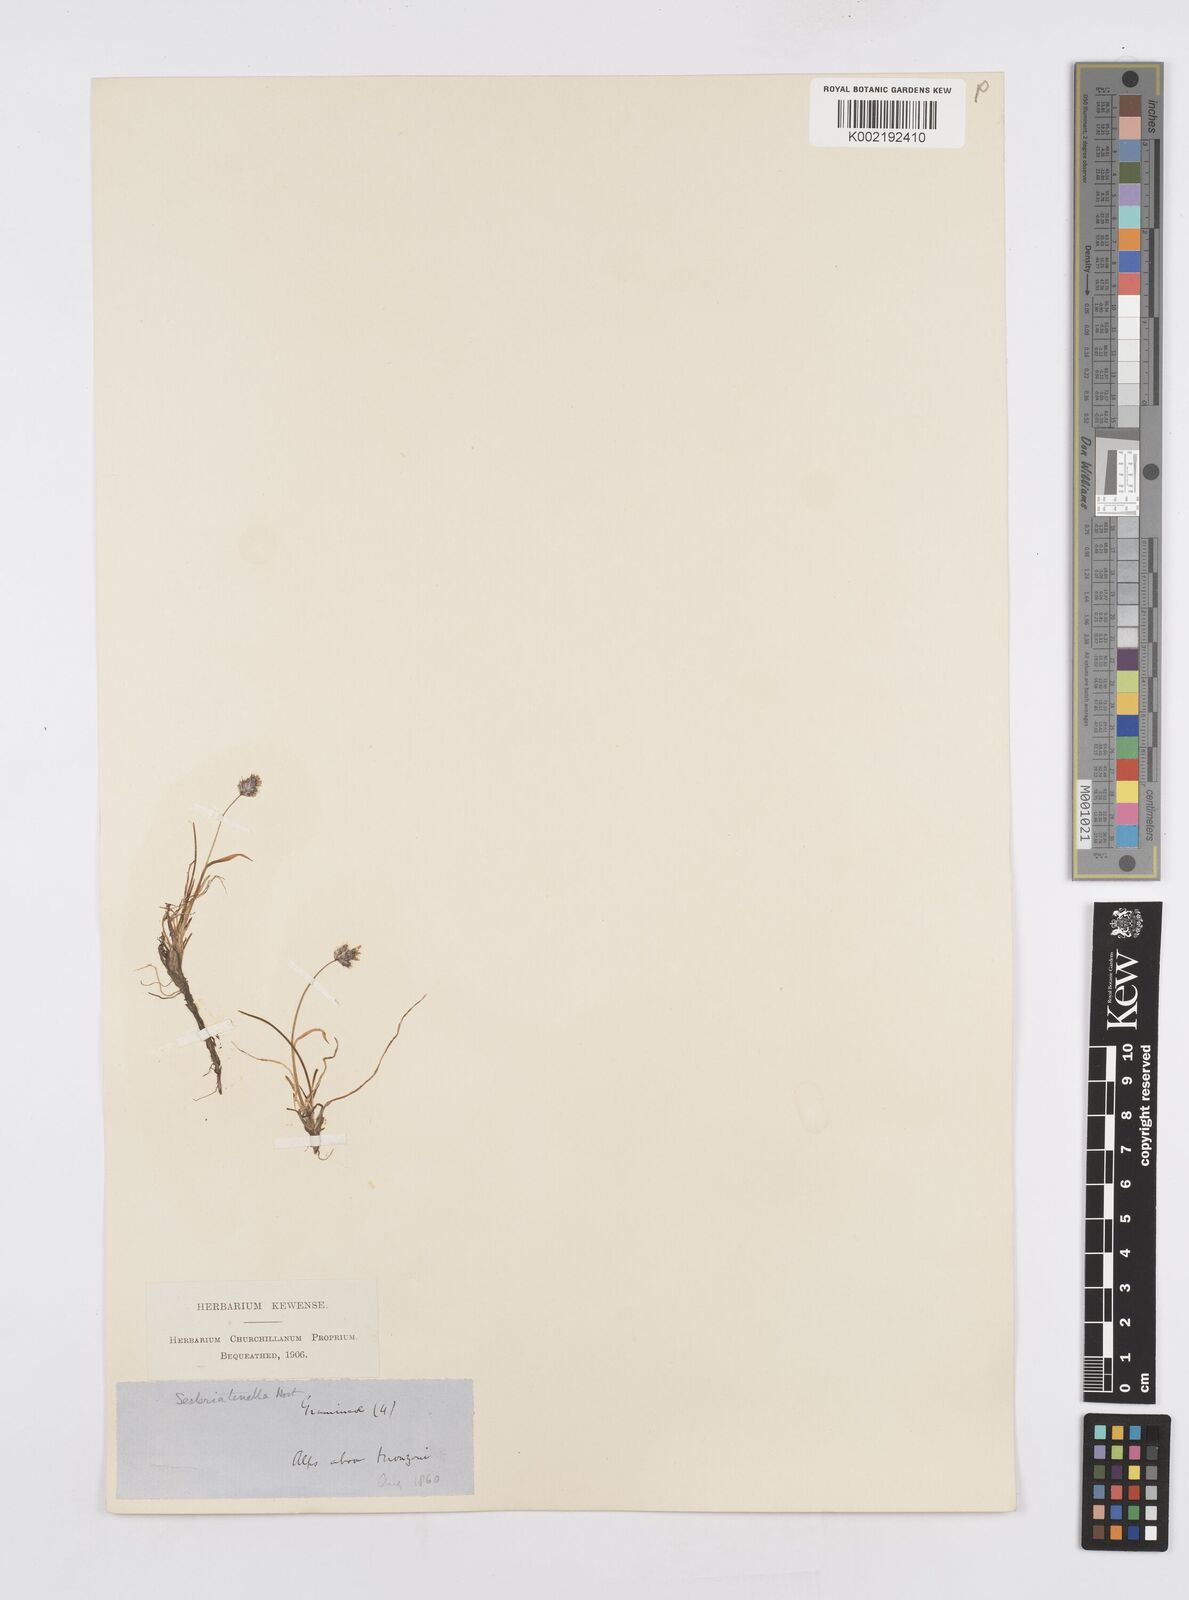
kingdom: Plantae
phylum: Tracheophyta
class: Liliopsida
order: Poales
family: Poaceae
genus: Psilathera
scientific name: Psilathera ovata
